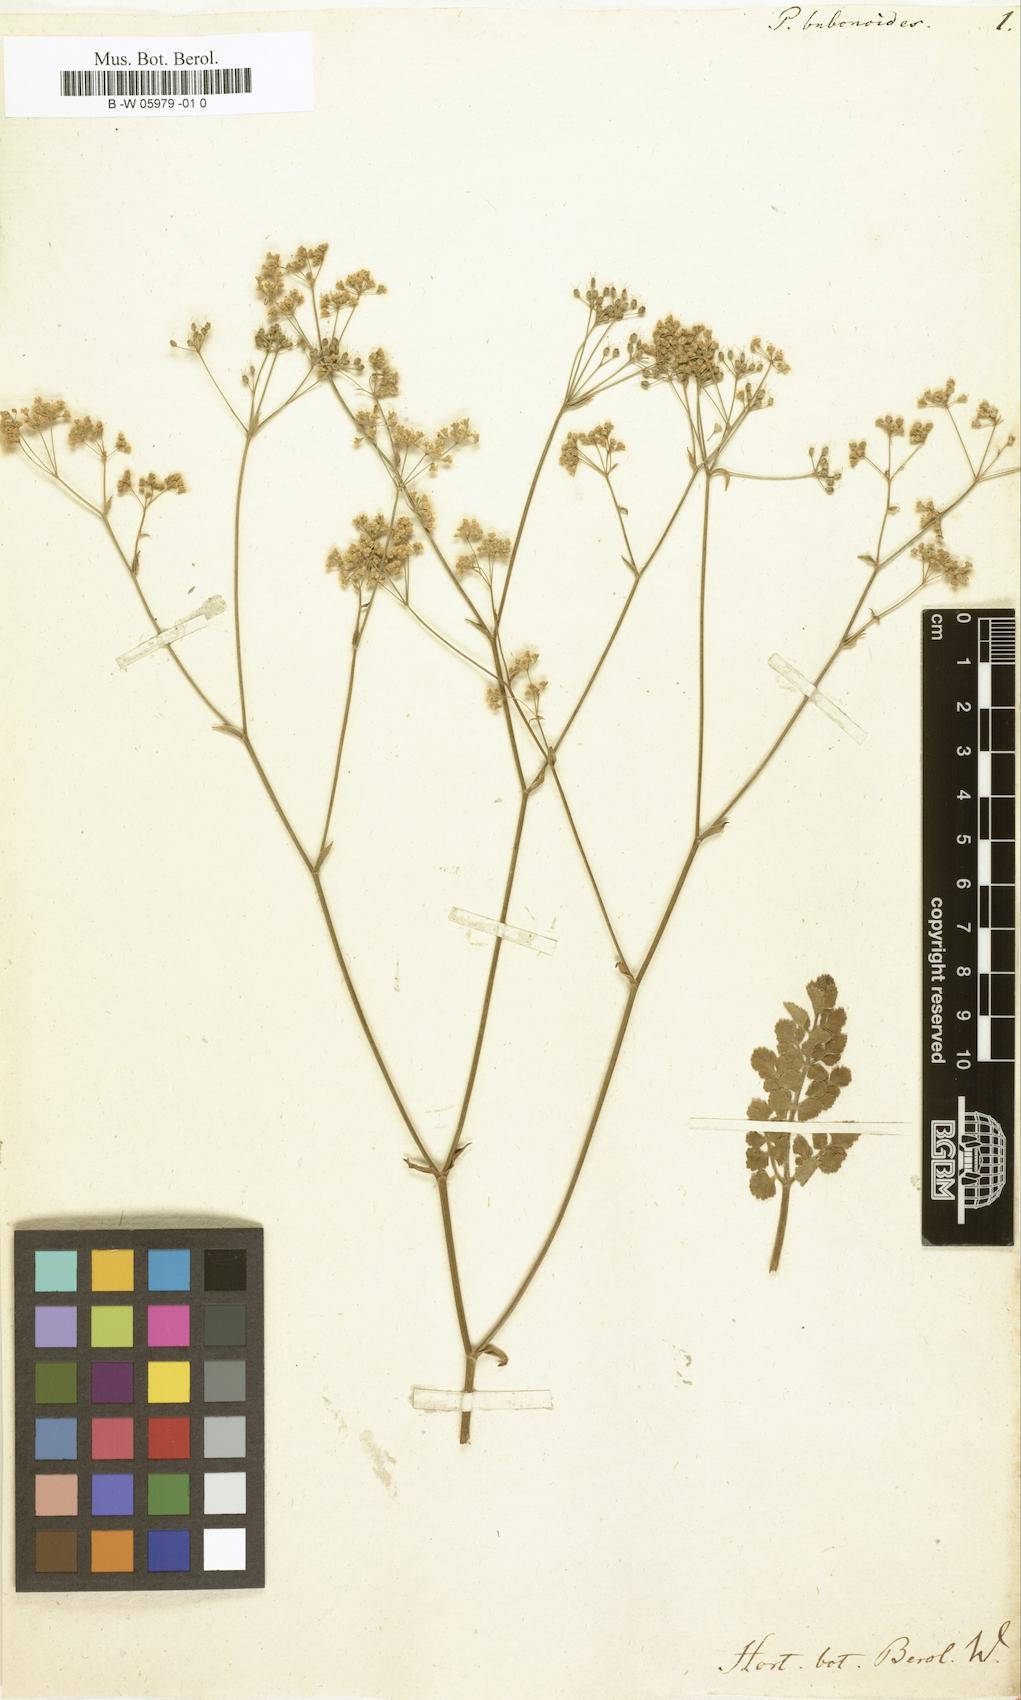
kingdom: Plantae
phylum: Tracheophyta
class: Magnoliopsida
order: Apiales
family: Apiaceae
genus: Pimpinella
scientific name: Pimpinella
